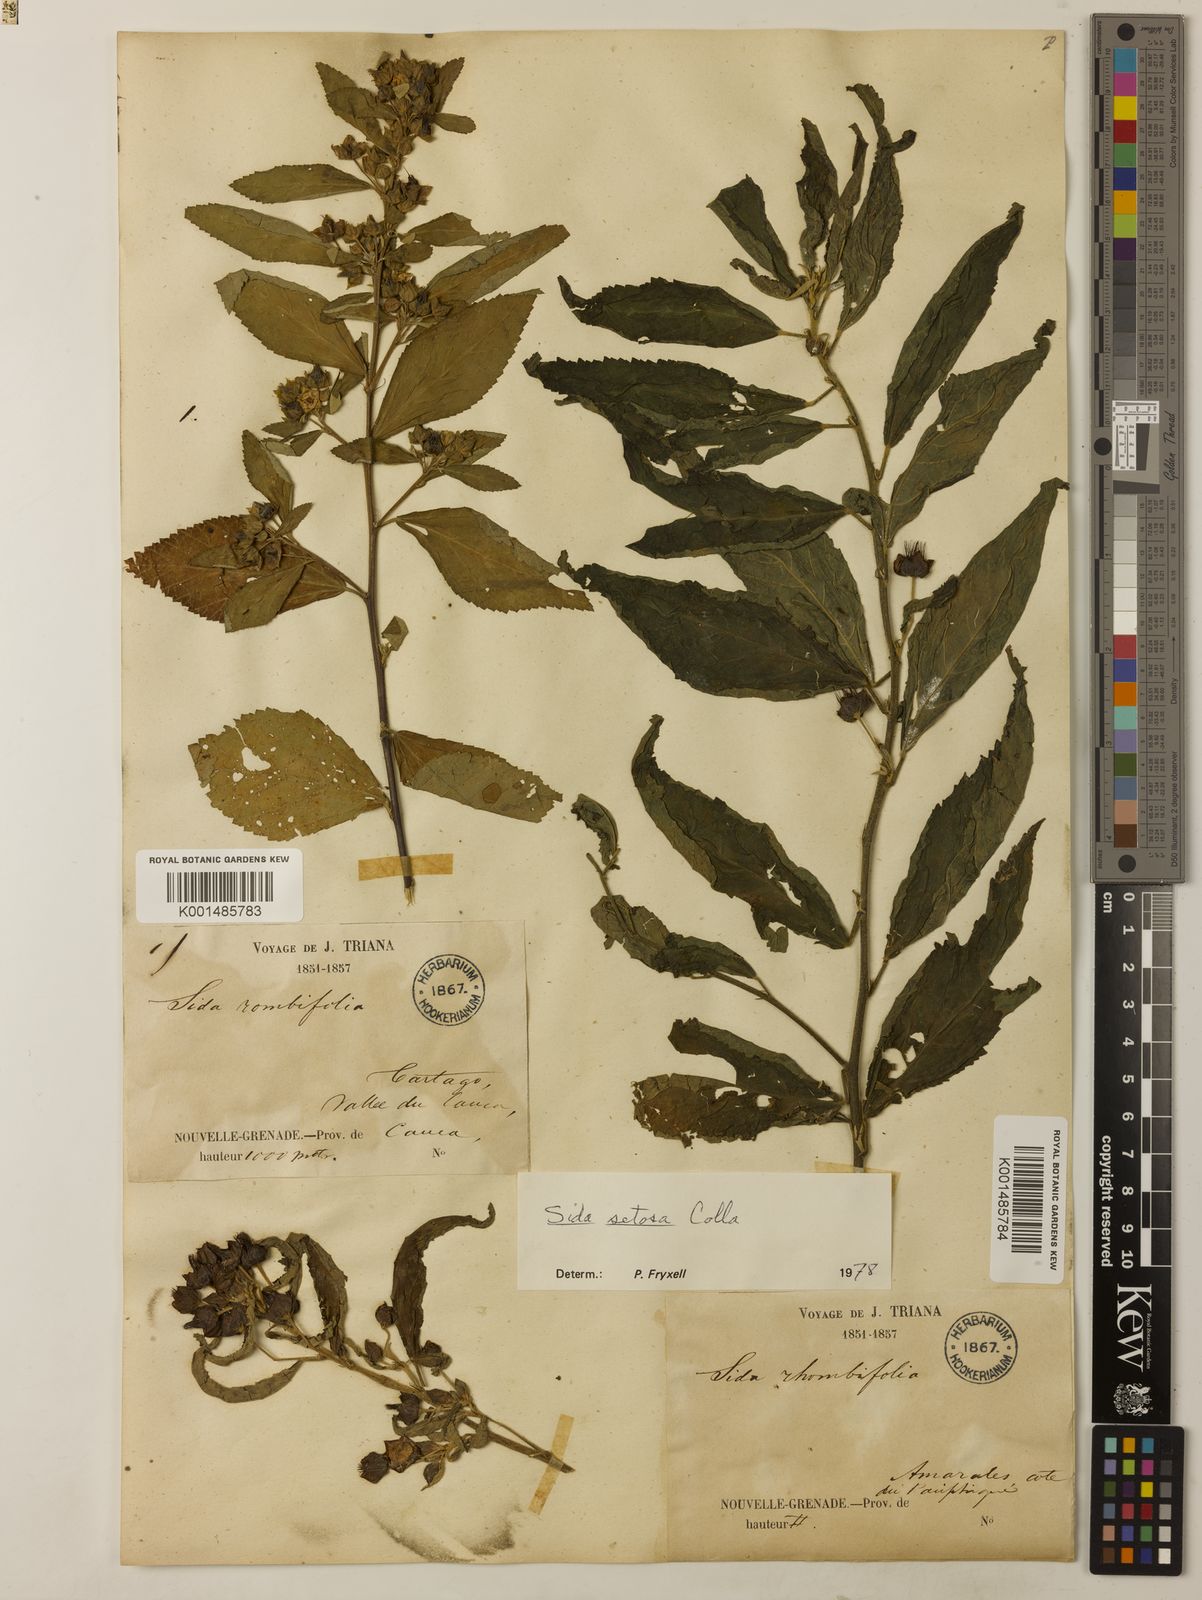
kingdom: Plantae
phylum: Tracheophyta
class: Magnoliopsida
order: Malvales
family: Malvaceae
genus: Sida
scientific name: Sida setosa
